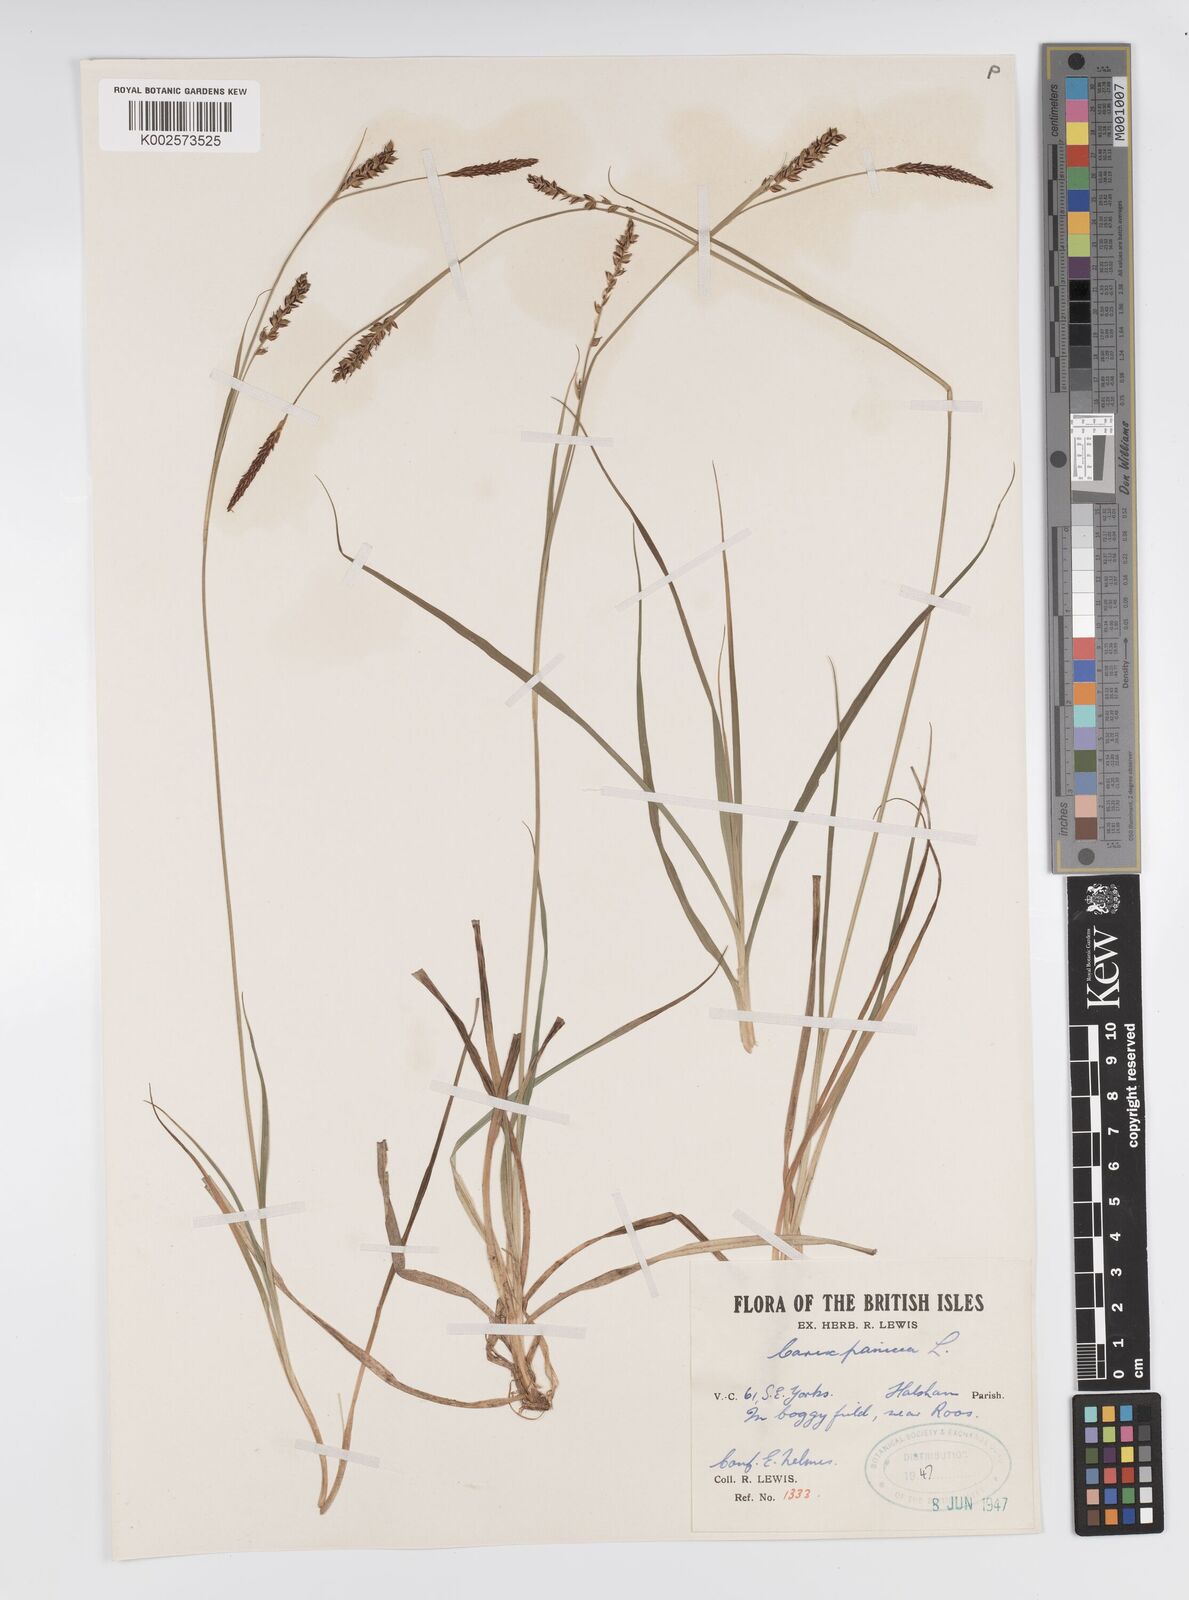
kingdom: Plantae
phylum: Tracheophyta
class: Liliopsida
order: Poales
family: Cyperaceae
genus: Carex
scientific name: Carex panicea
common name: Carnation sedge
